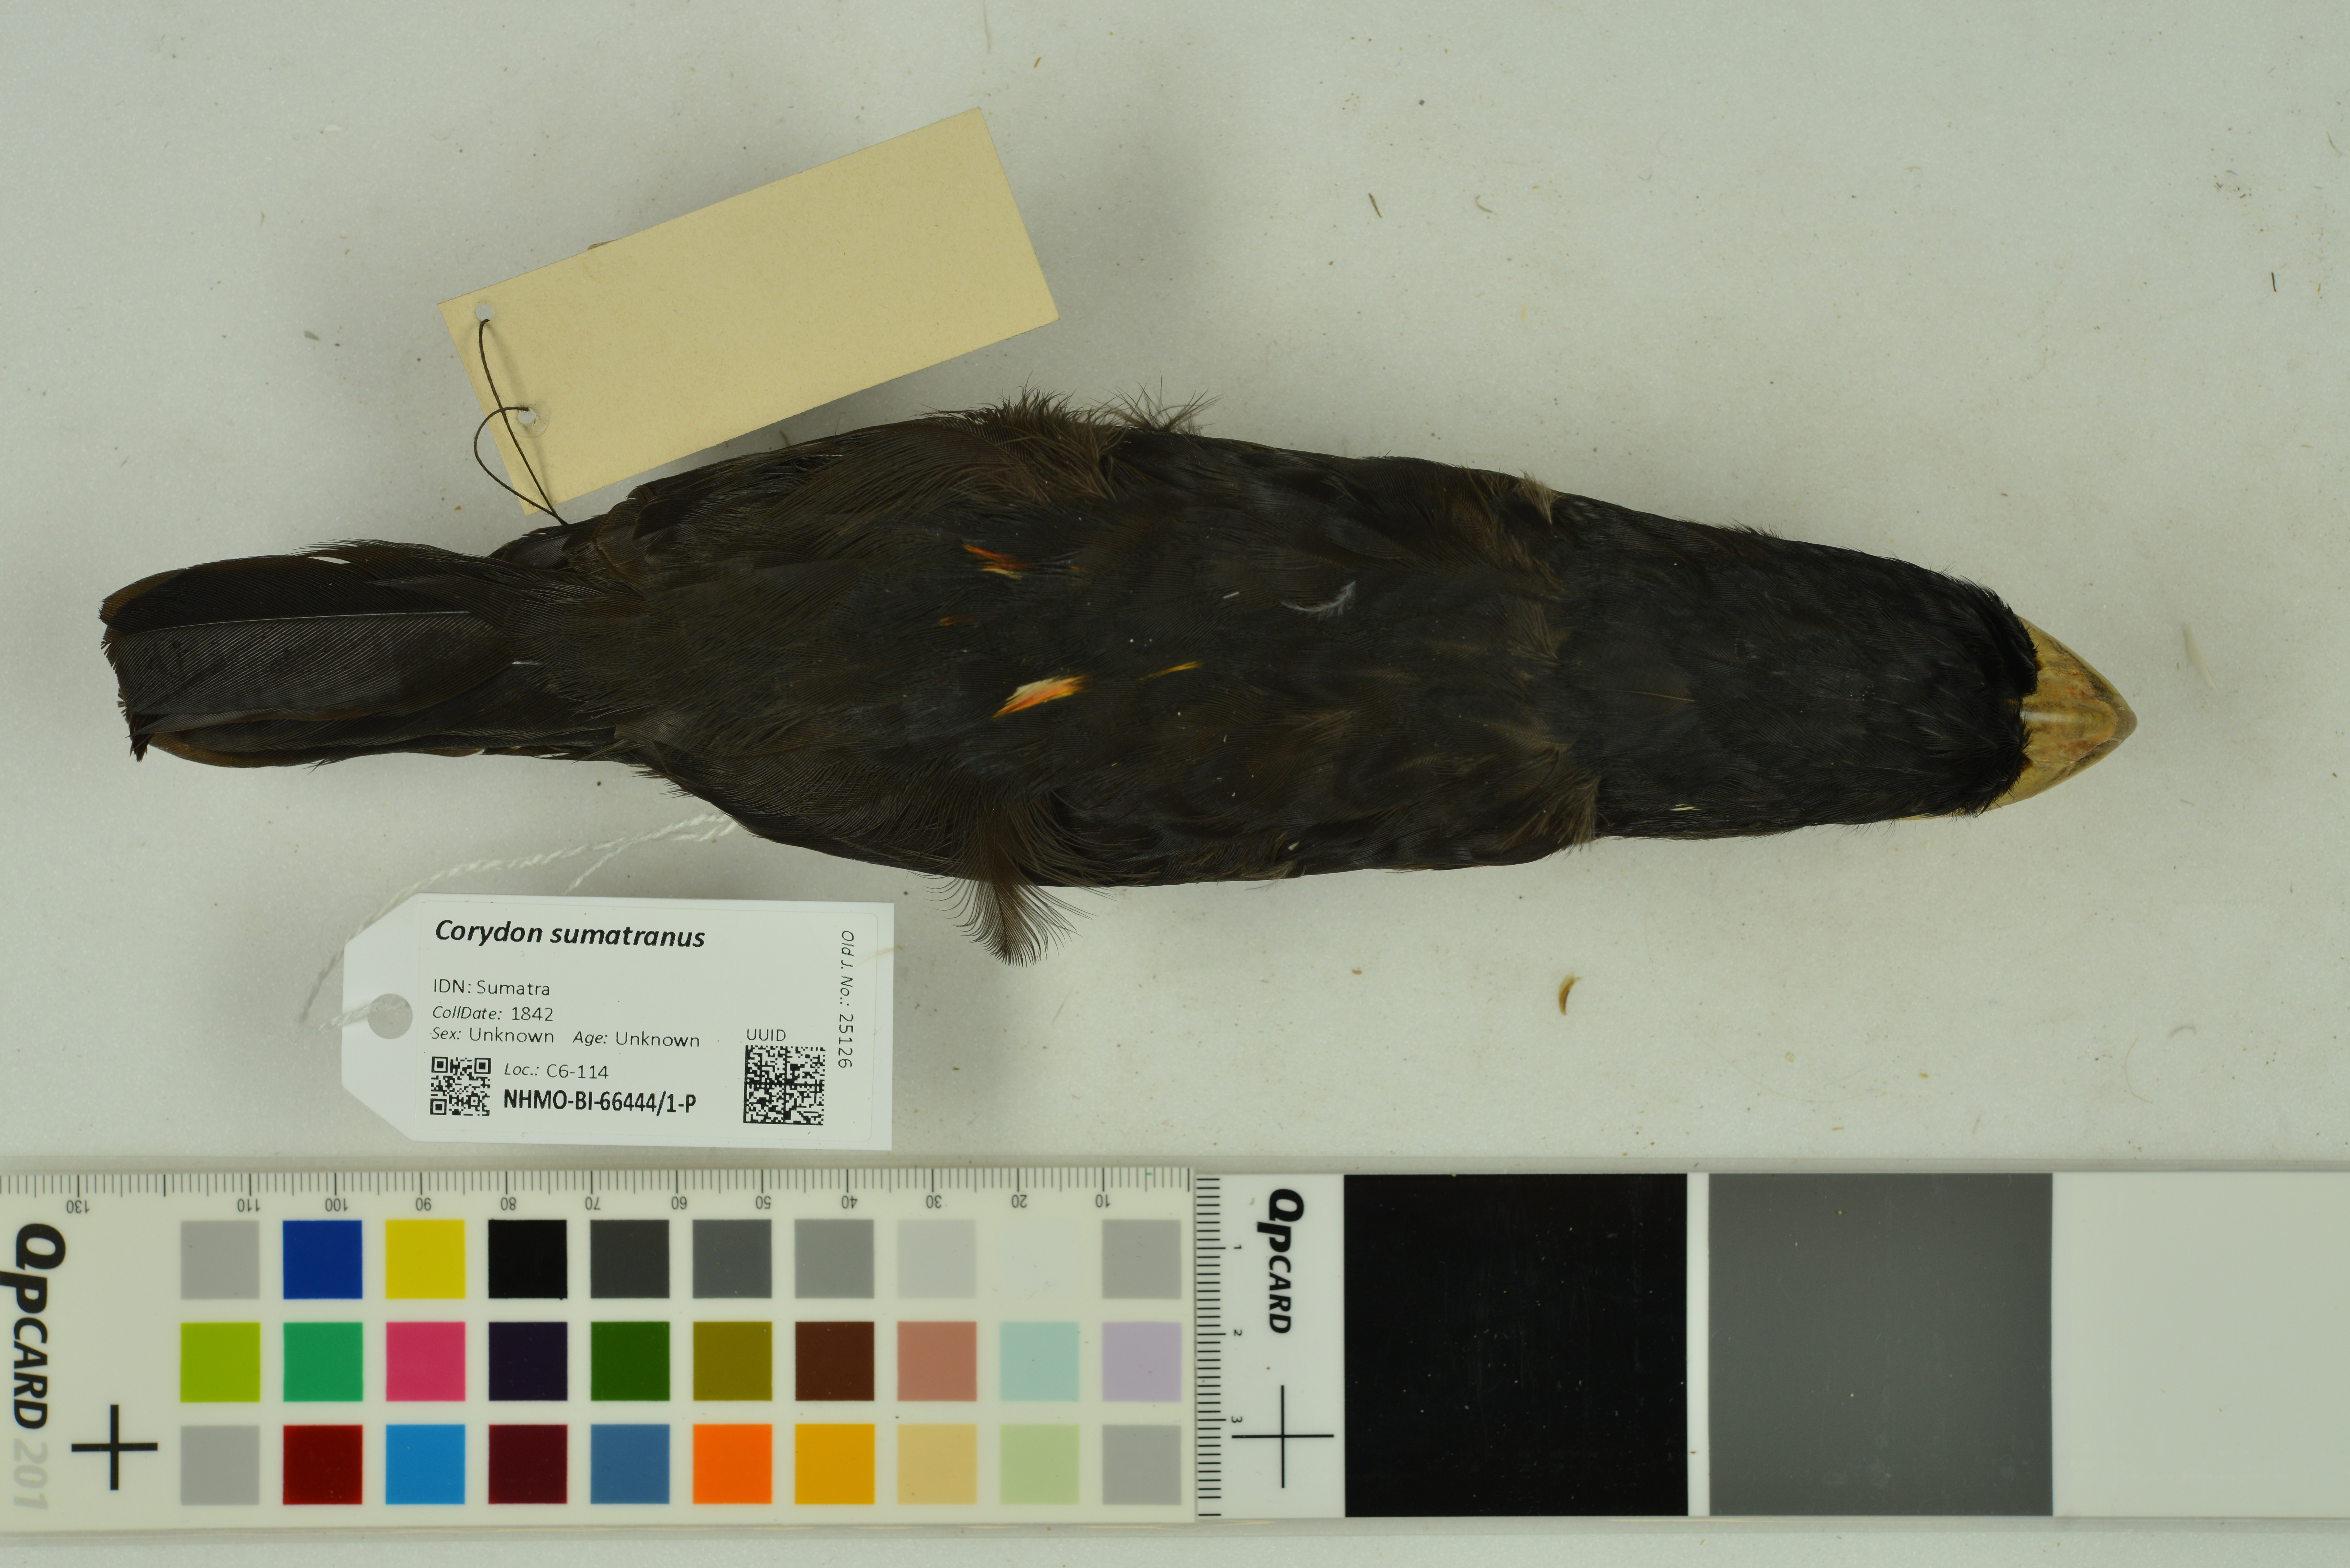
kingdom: Animalia
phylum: Chordata
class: Aves
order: Passeriformes
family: Eurylaimidae
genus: Corydon
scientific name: Corydon sumatranus
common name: Dusky broadbill
